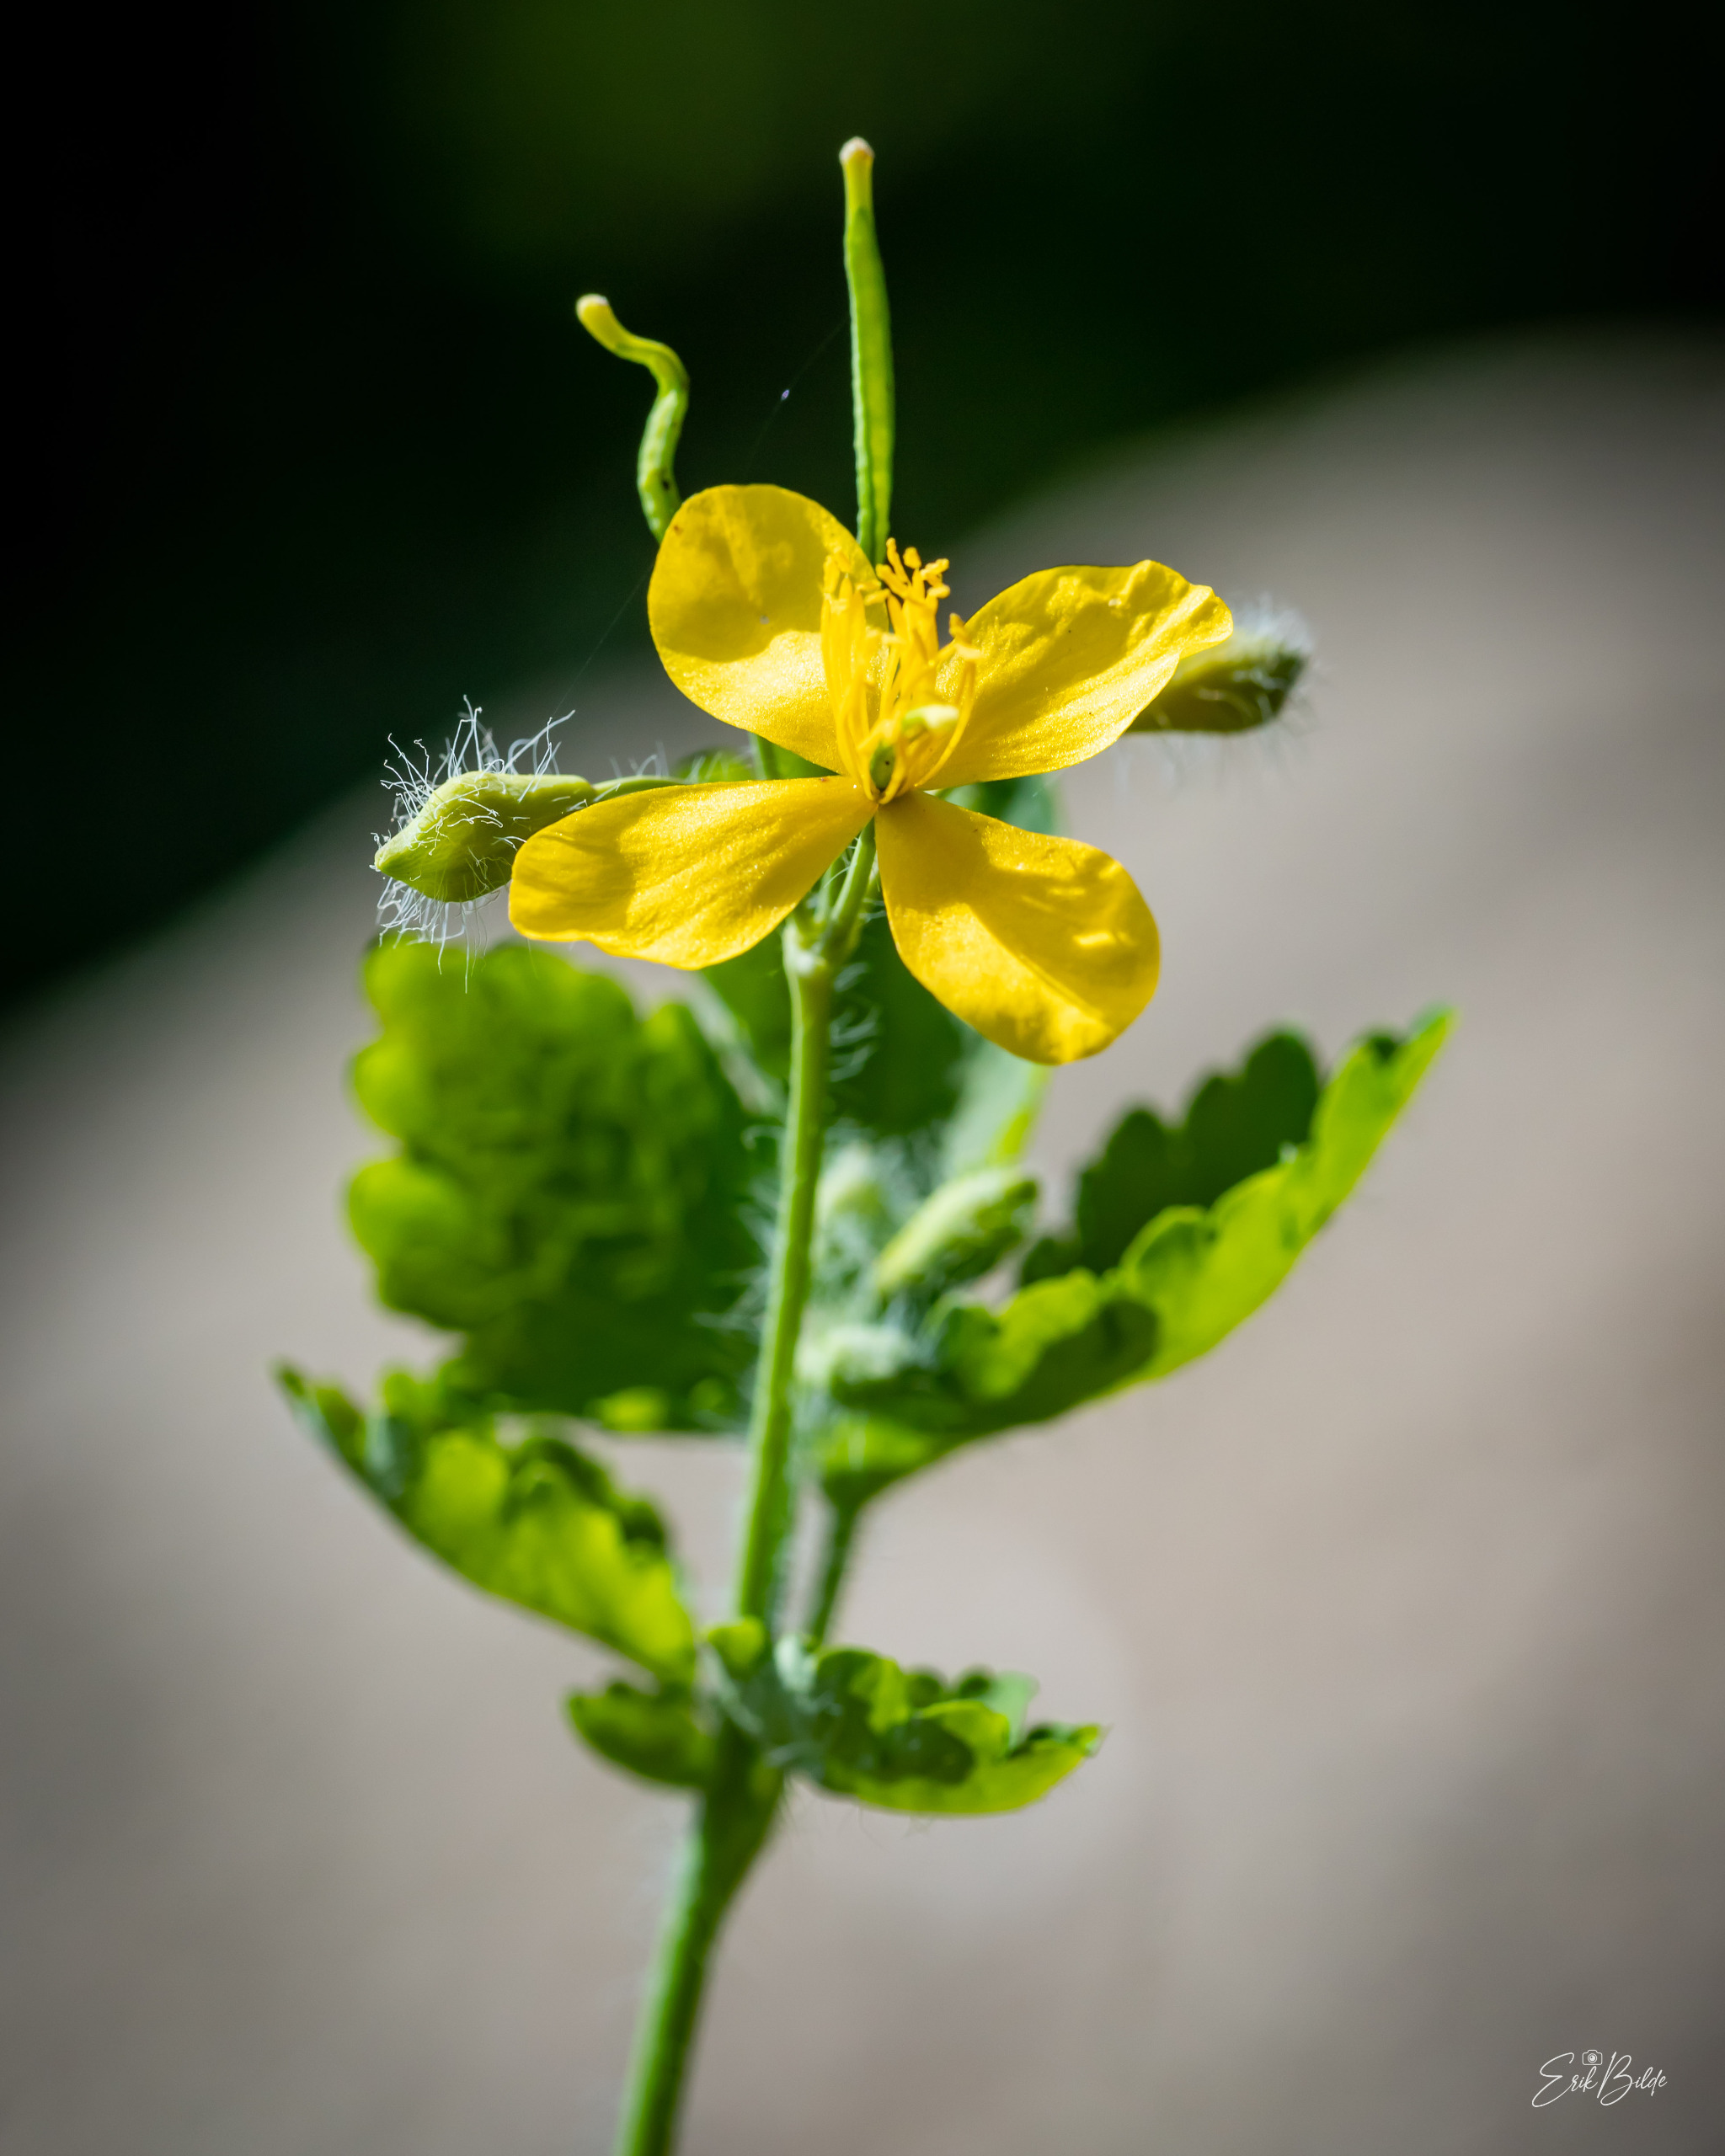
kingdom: Plantae
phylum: Tracheophyta
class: Magnoliopsida
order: Ranunculales
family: Papaveraceae
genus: Chelidonium
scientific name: Chelidonium majus
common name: Svaleurt
